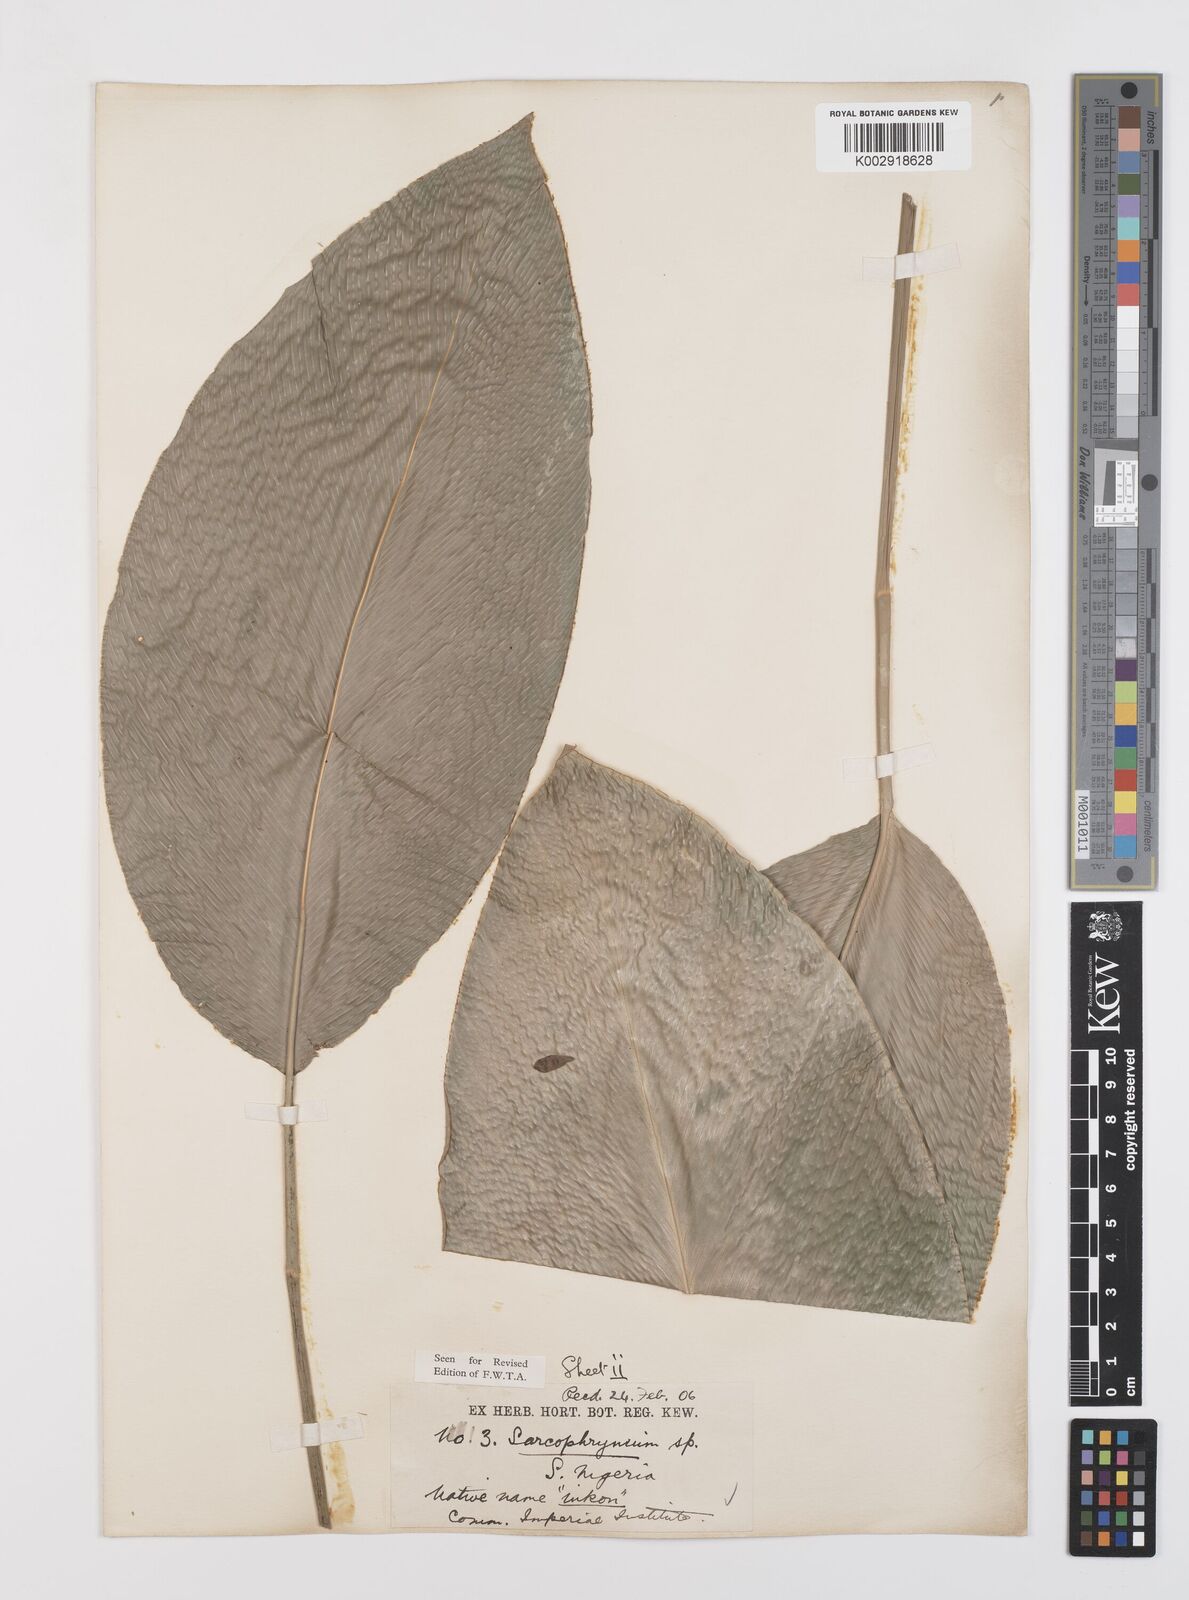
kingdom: Plantae
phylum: Tracheophyta
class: Liliopsida
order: Zingiberales
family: Marantaceae
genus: Sarcophrynium
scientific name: Sarcophrynium brachystachyum
